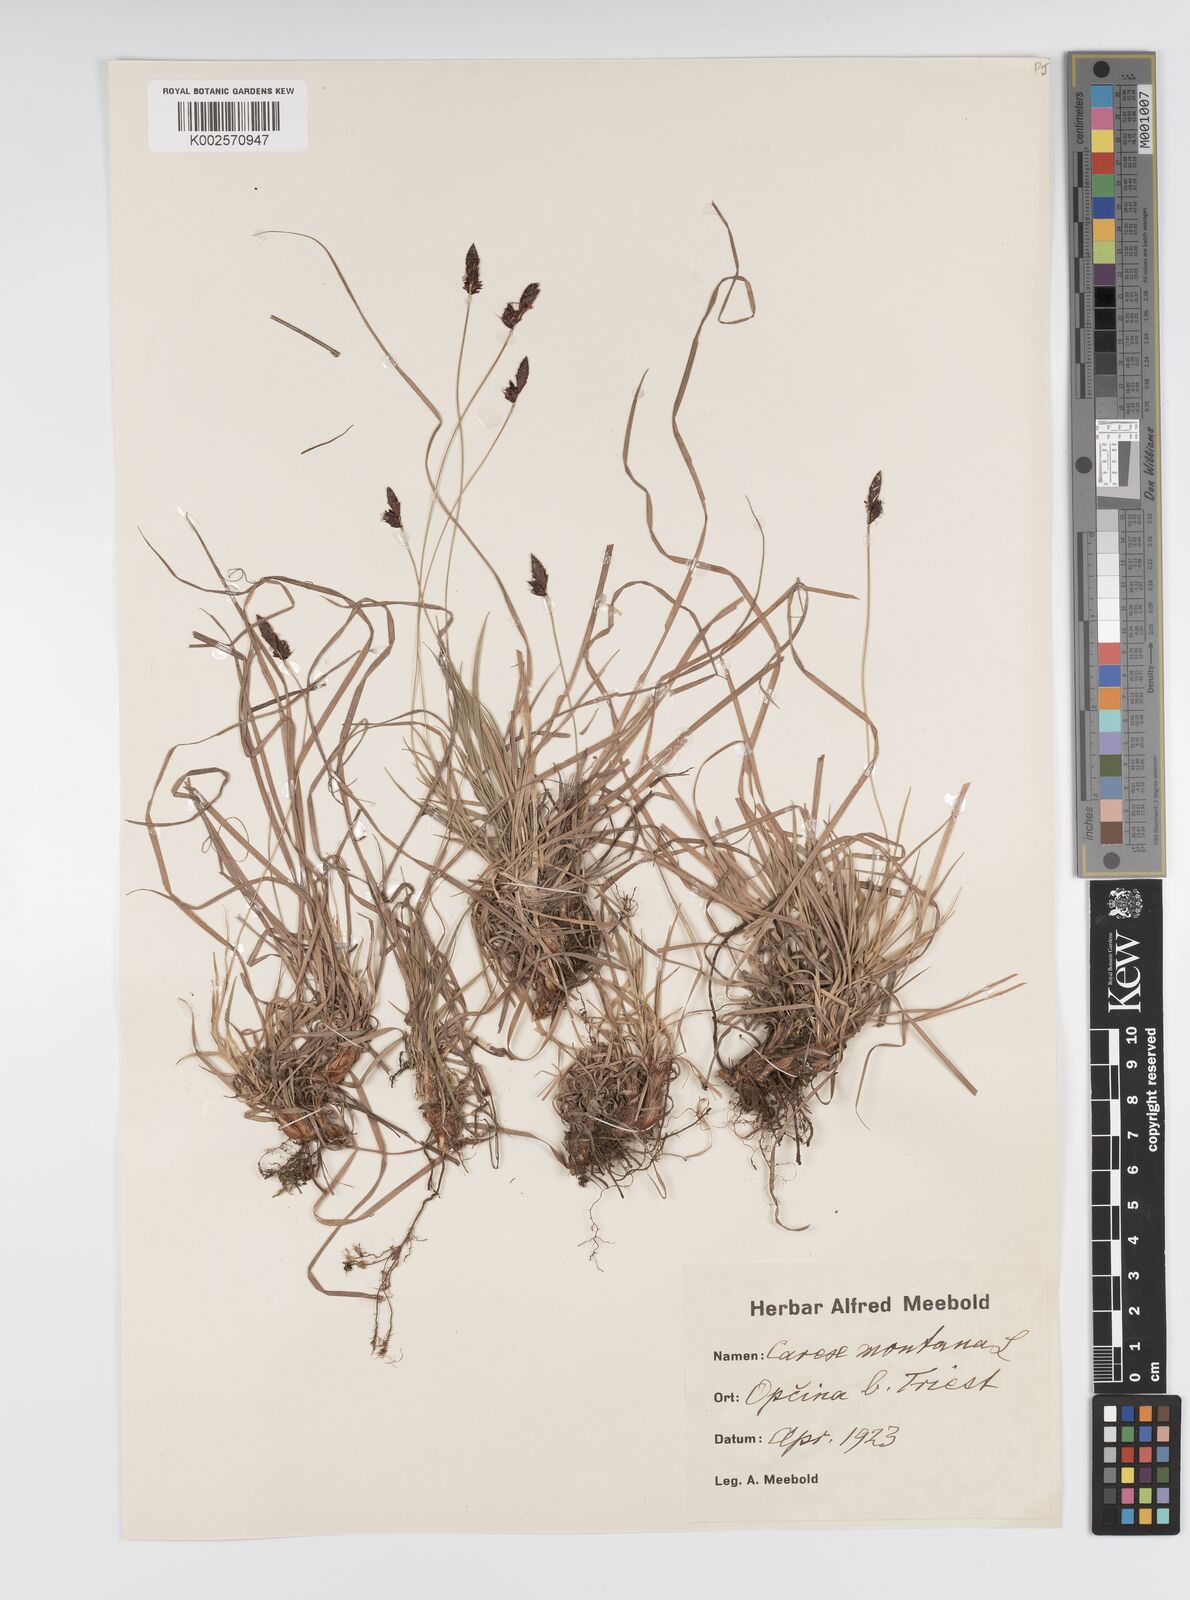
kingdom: Plantae
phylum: Tracheophyta
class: Liliopsida
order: Poales
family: Cyperaceae
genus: Carex
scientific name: Carex montana
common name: Soft-leaved sedge
